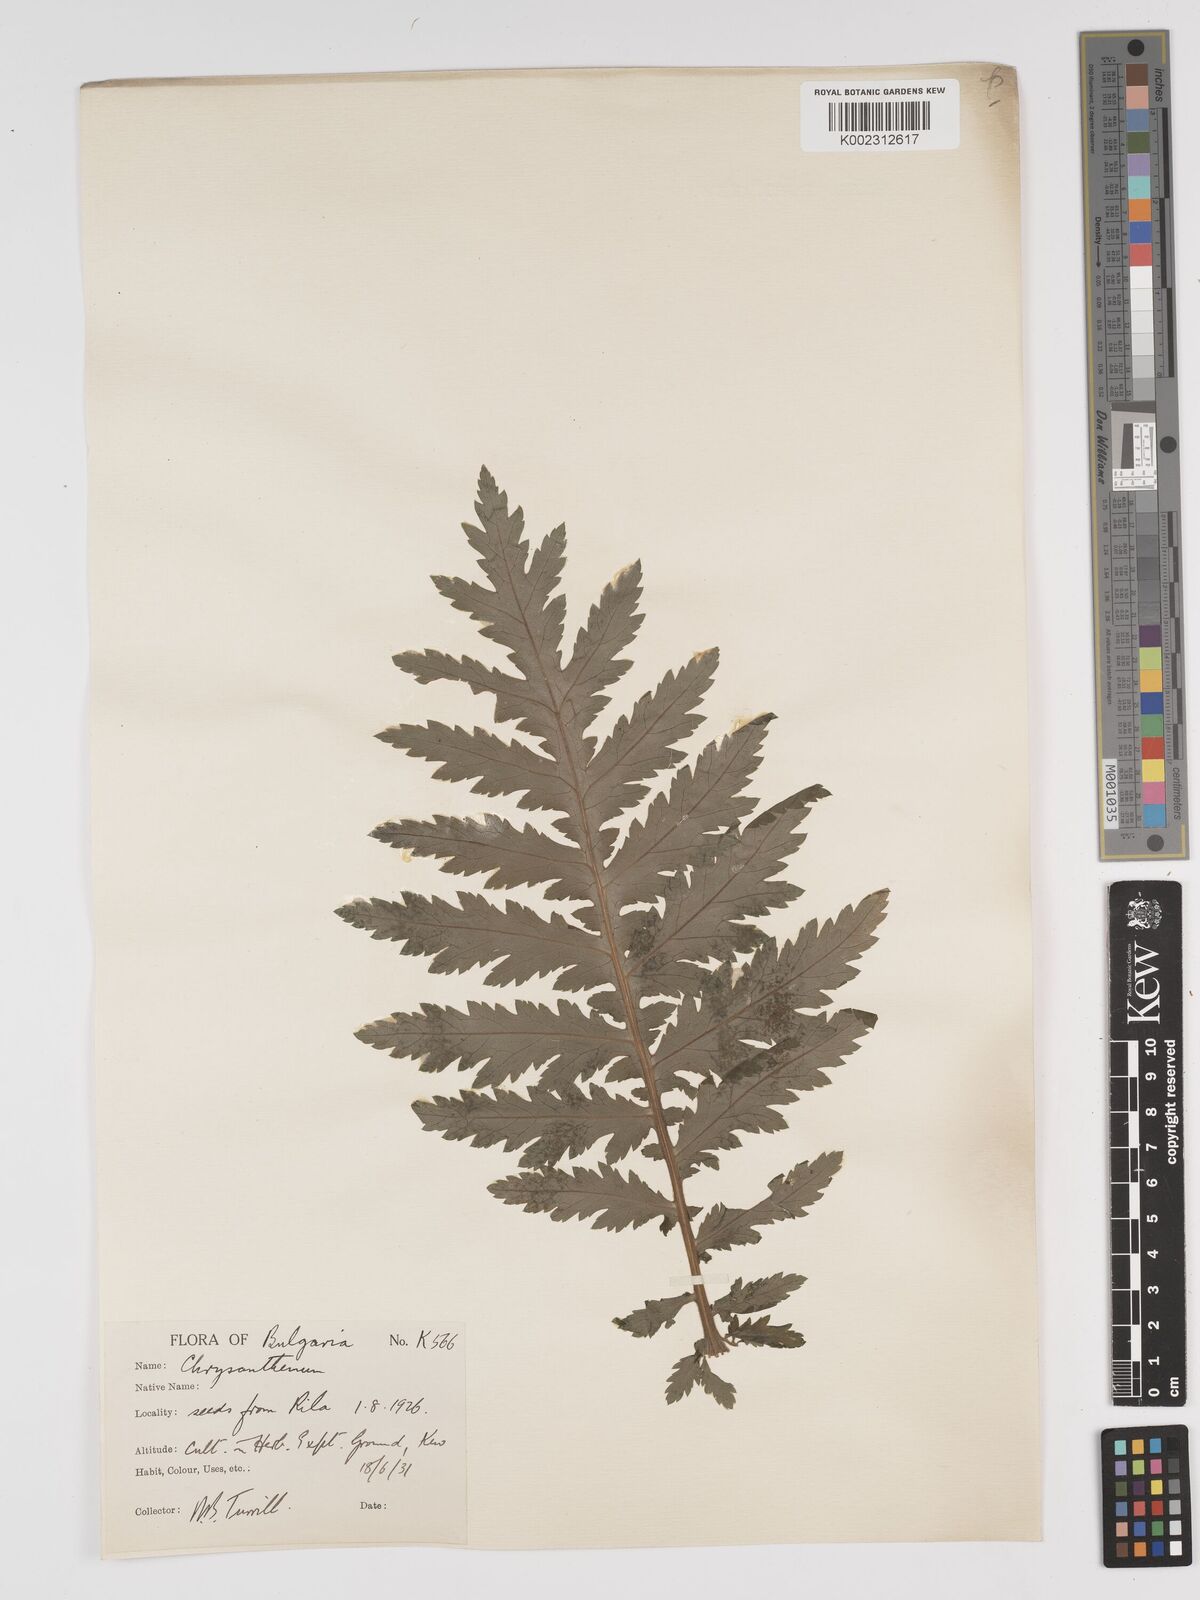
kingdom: Plantae
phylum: Tracheophyta
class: Magnoliopsida
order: Asterales
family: Asteraceae
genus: Tanacetum
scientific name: Tanacetum macrophyllum
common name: Rayed tansy
